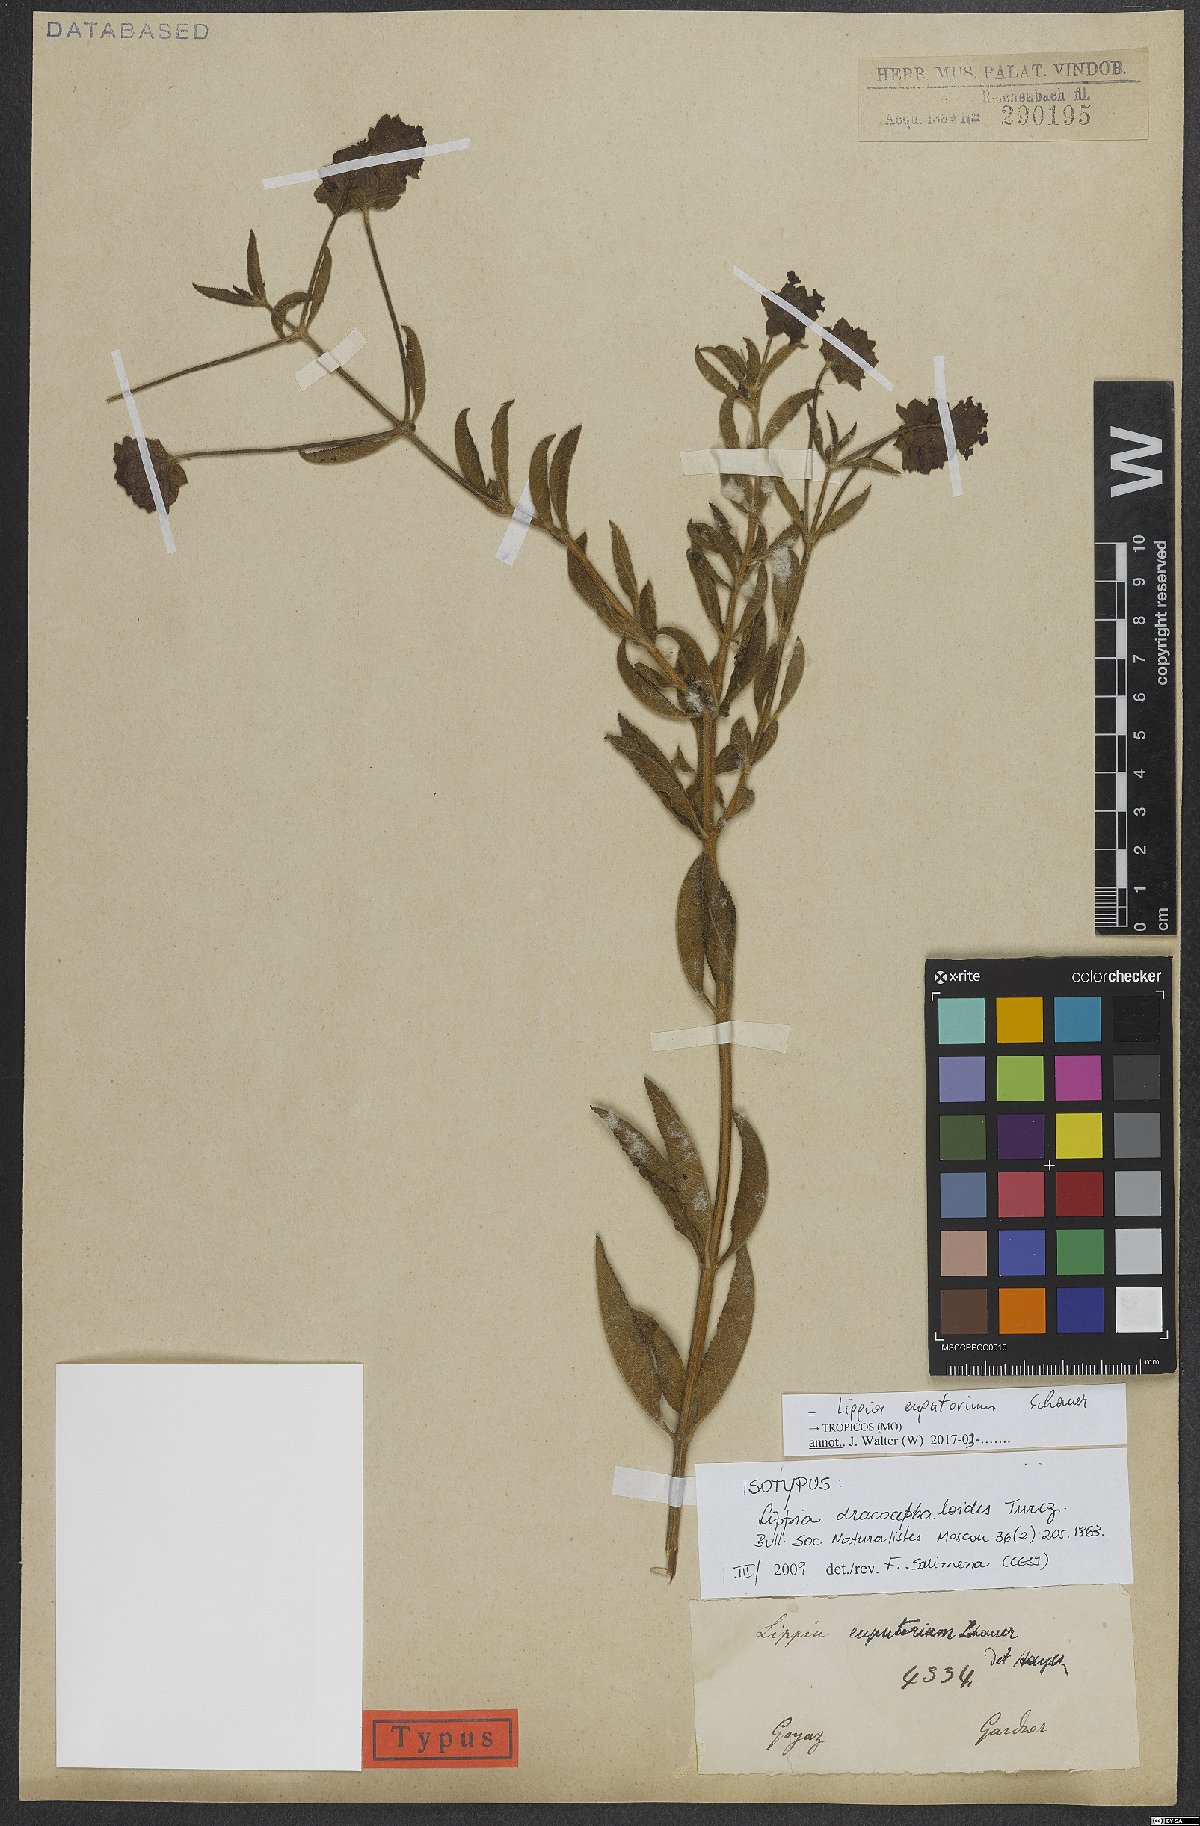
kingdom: Plantae
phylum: Tracheophyta
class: Magnoliopsida
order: Lamiales
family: Verbenaceae
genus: Lippia
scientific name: Lippia eupatorium
